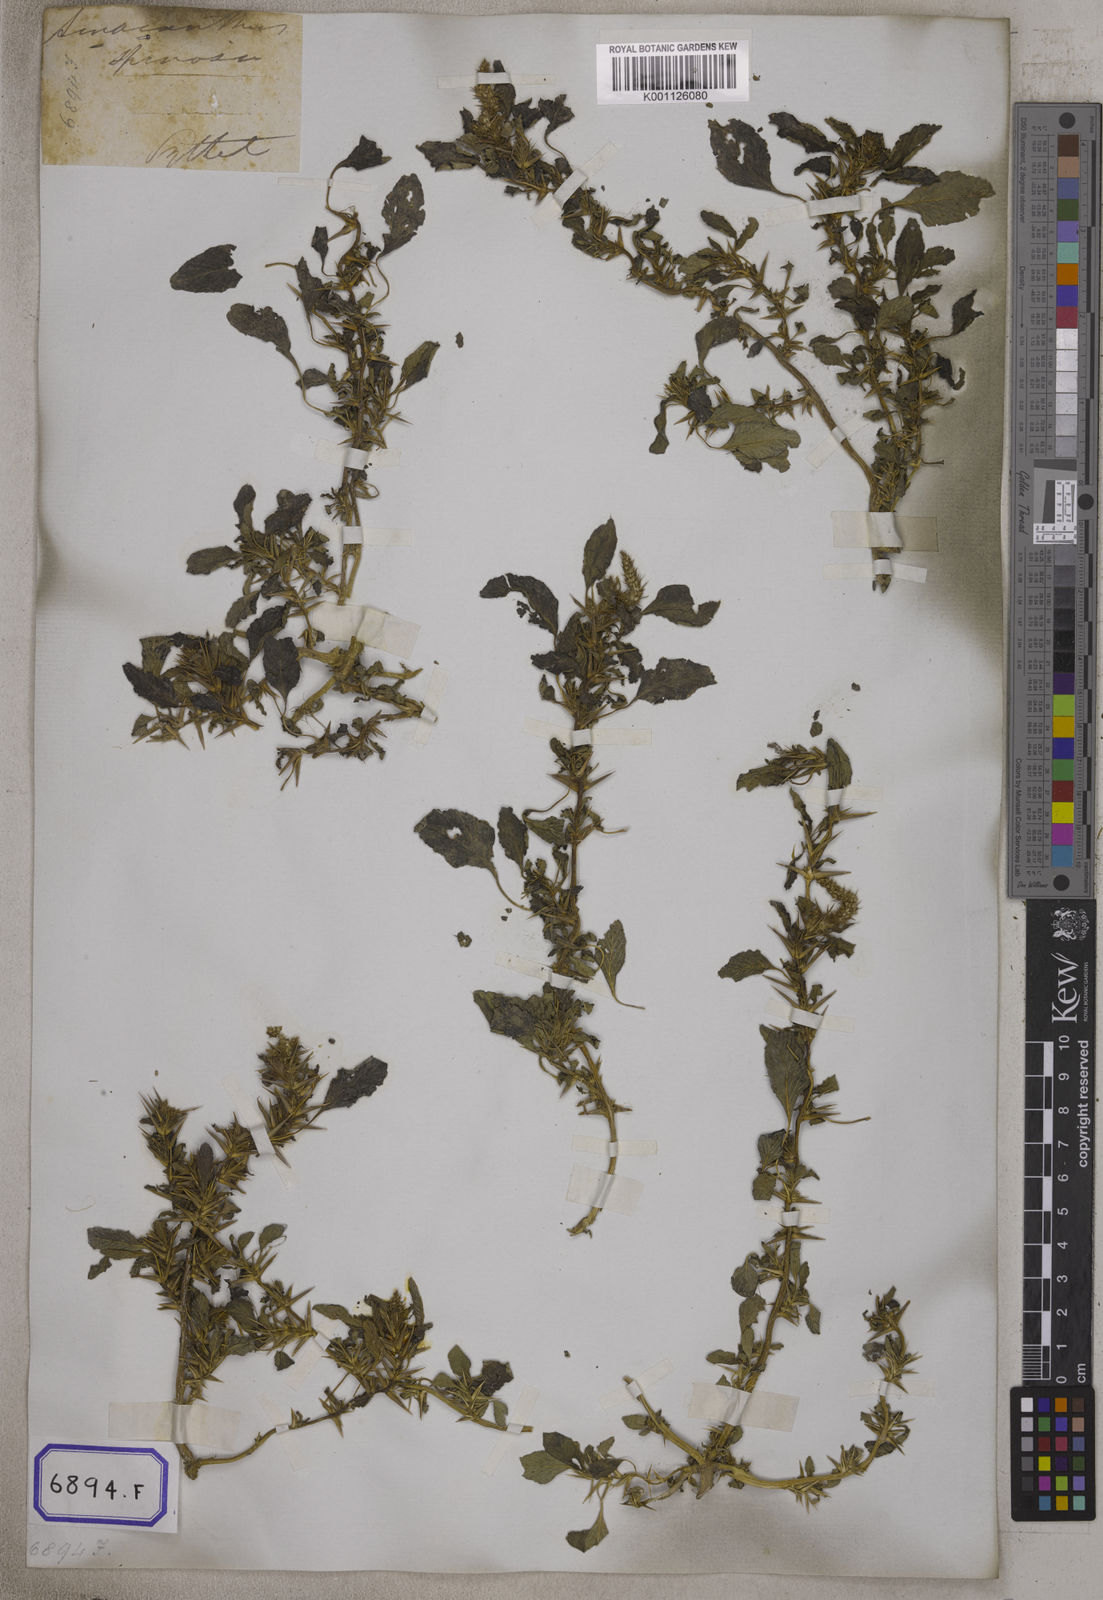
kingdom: Plantae
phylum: Tracheophyta
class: Magnoliopsida
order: Caryophyllales
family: Amaranthaceae
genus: Amaranthus
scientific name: Amaranthus spinosus
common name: Spiny amaranth
